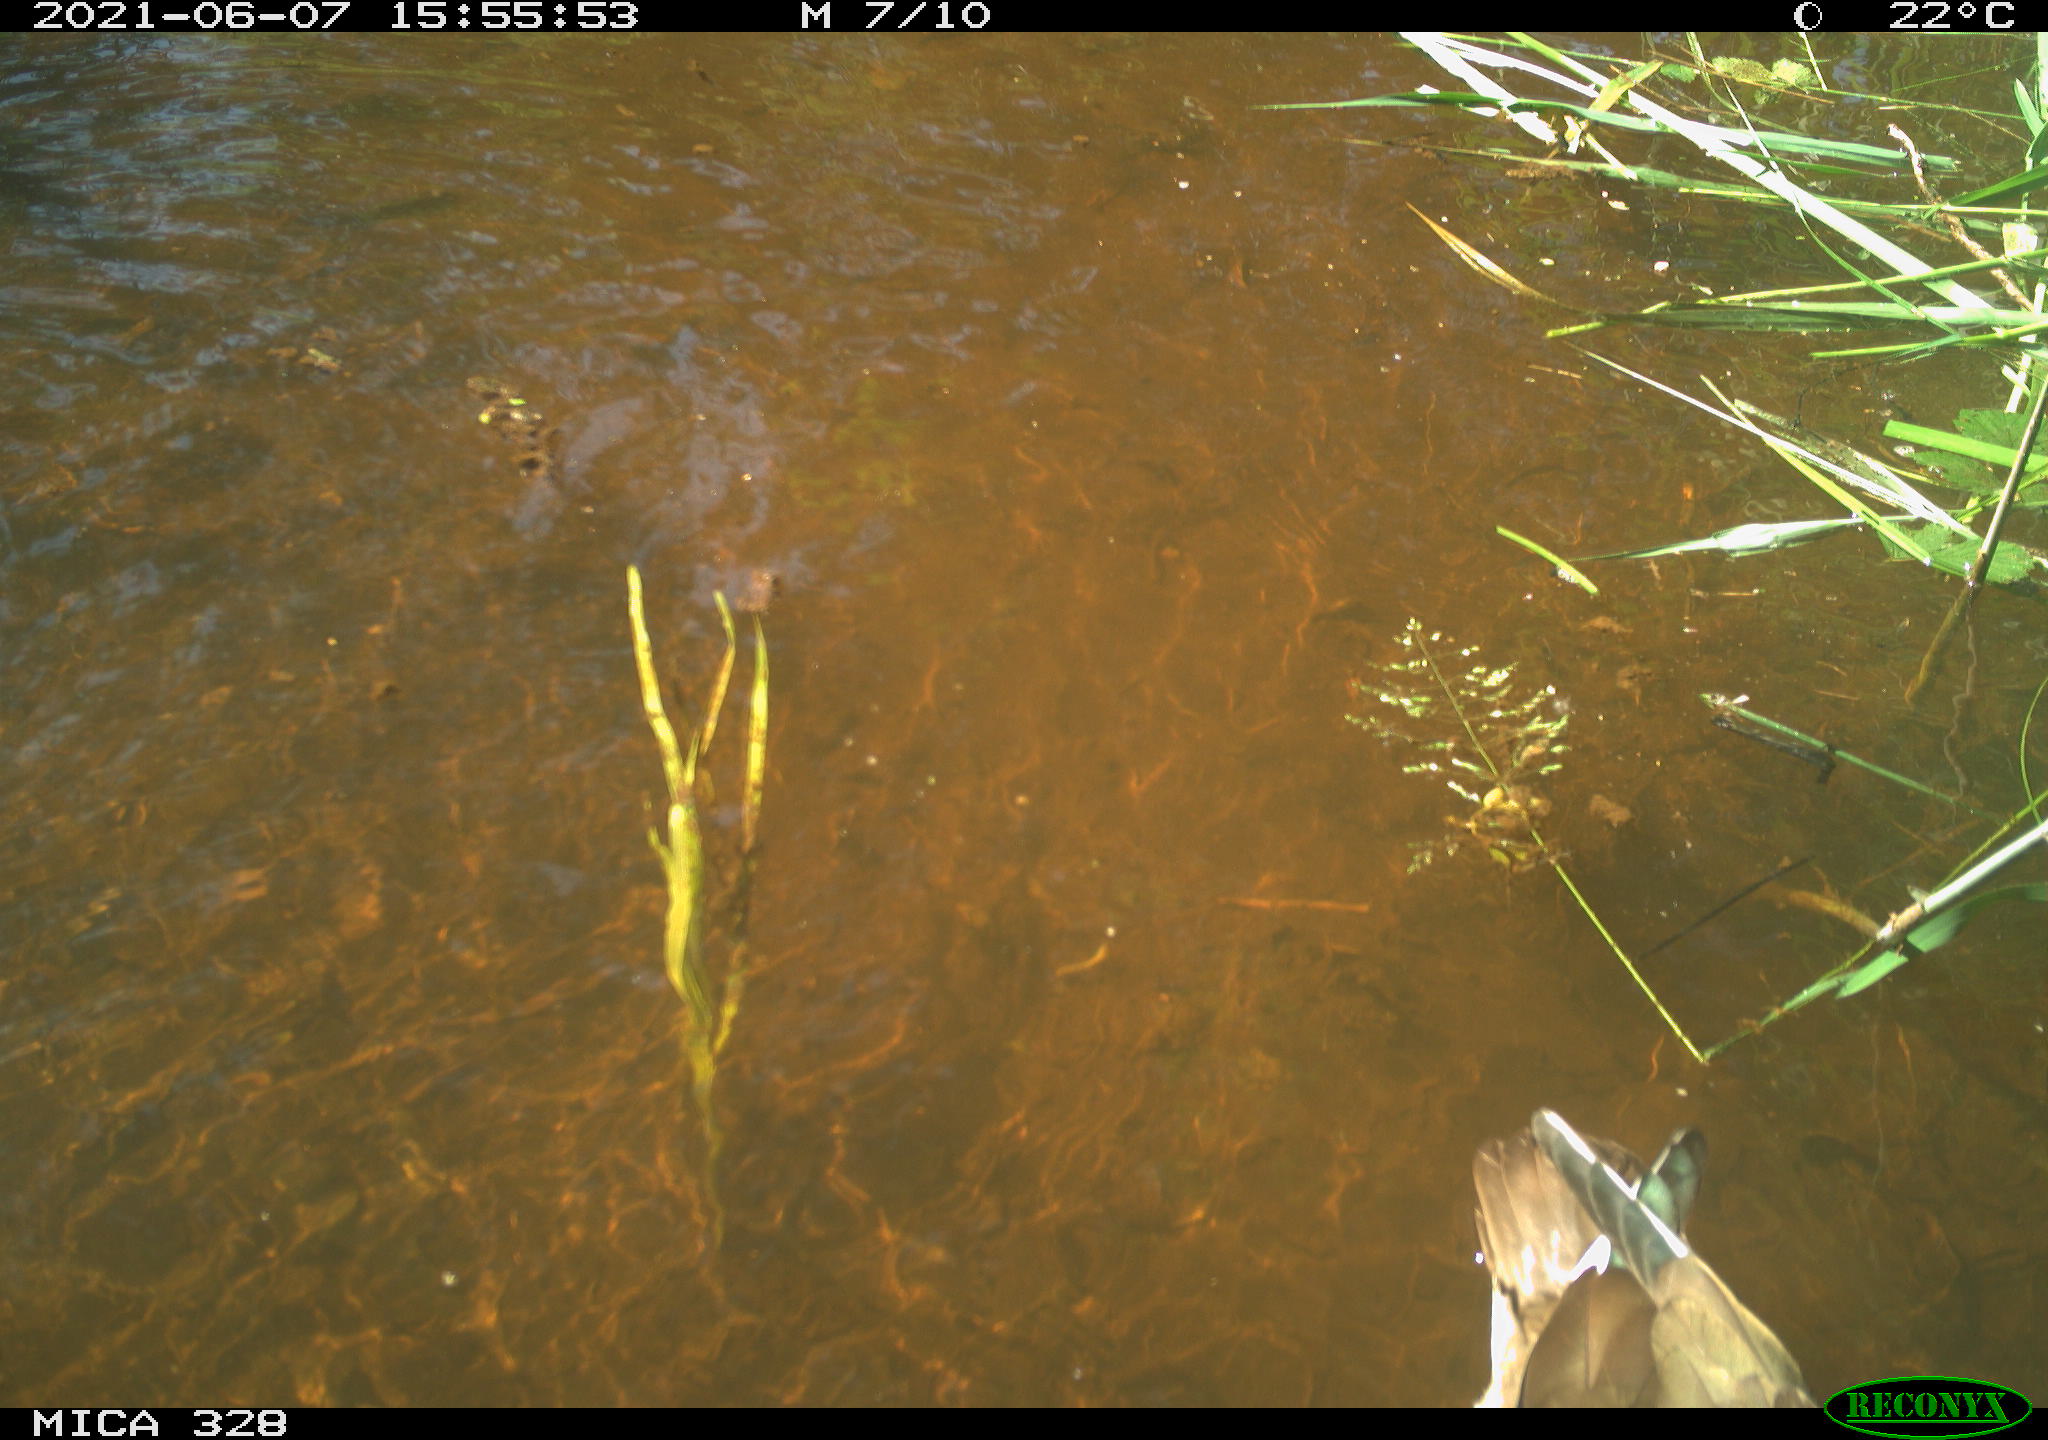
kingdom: Animalia
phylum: Chordata
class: Aves
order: Anseriformes
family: Anatidae
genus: Aix
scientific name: Aix galericulata
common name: Mandarin duck
